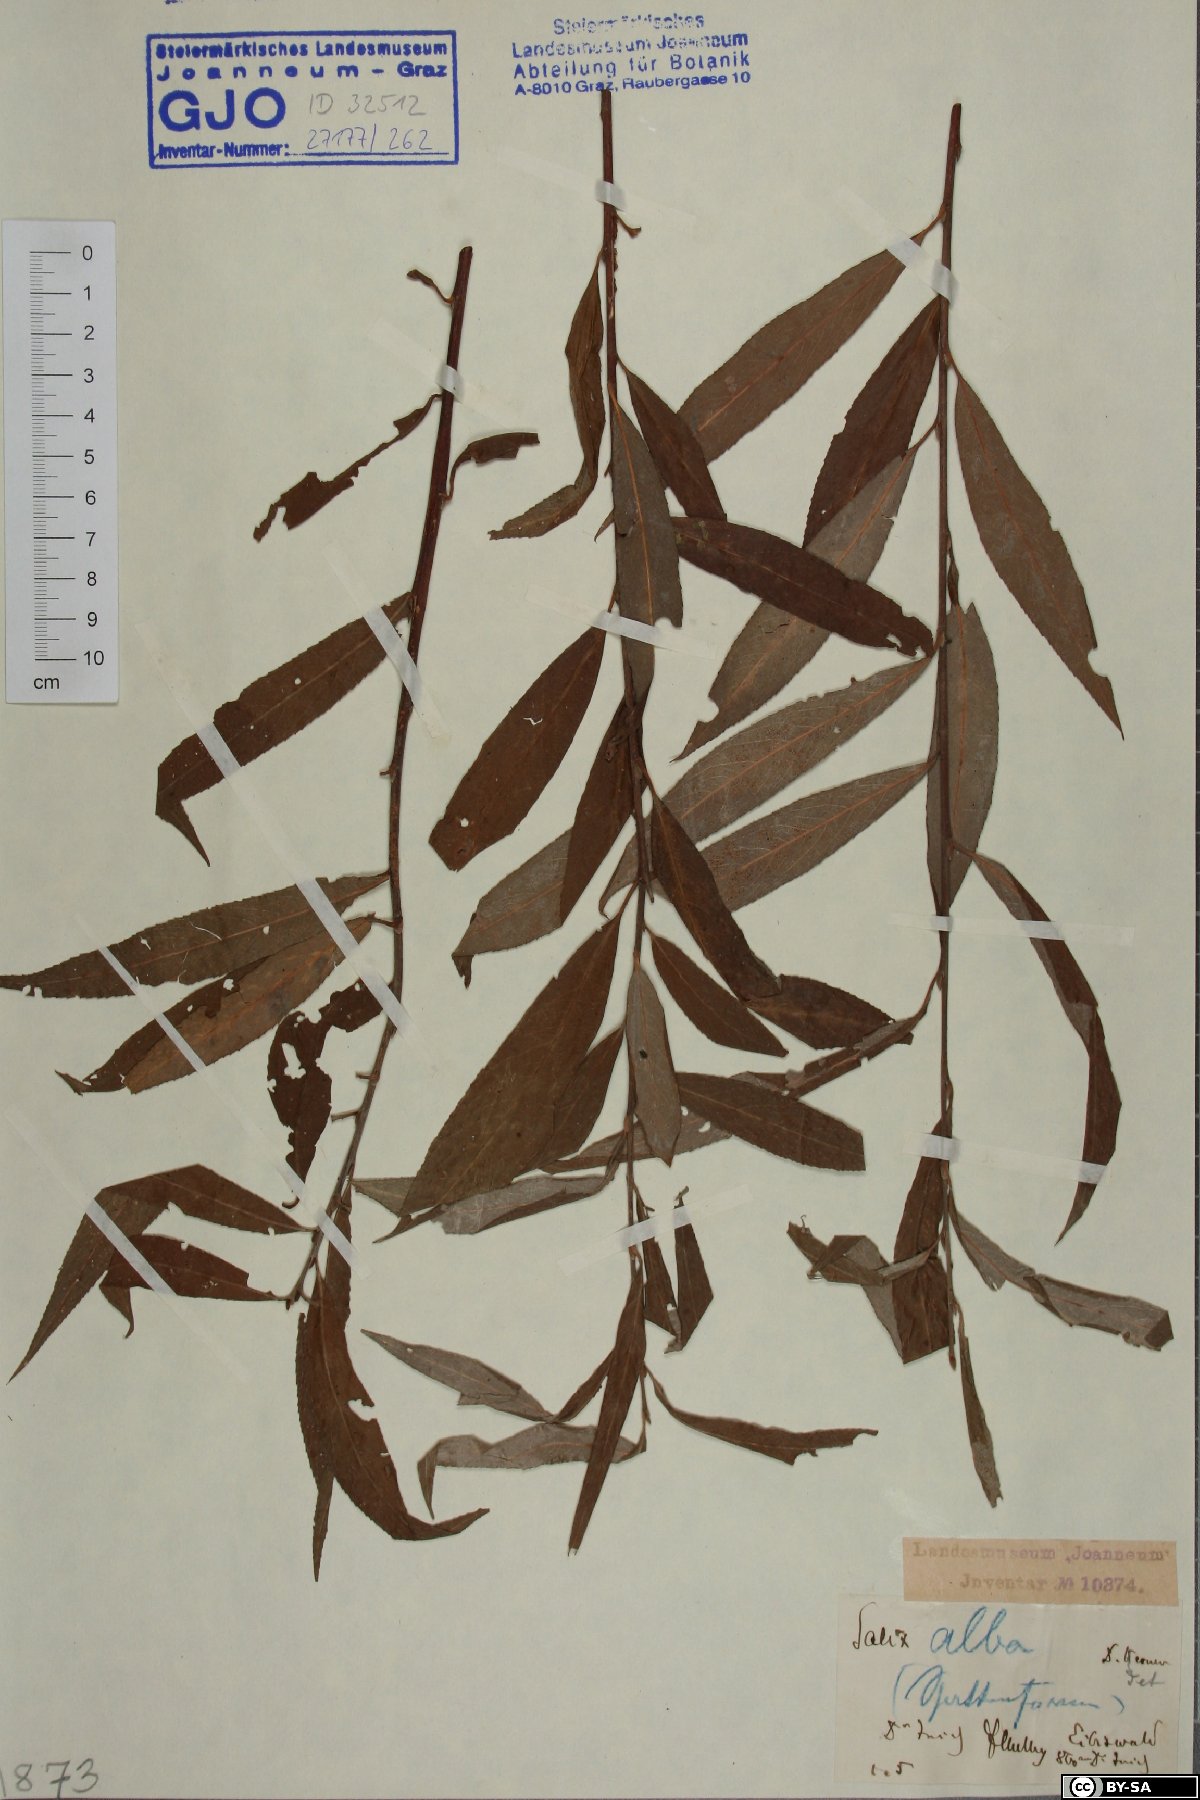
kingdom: Plantae
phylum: Tracheophyta
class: Magnoliopsida
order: Malpighiales
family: Salicaceae
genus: Salix
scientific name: Salix alba
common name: White willow
